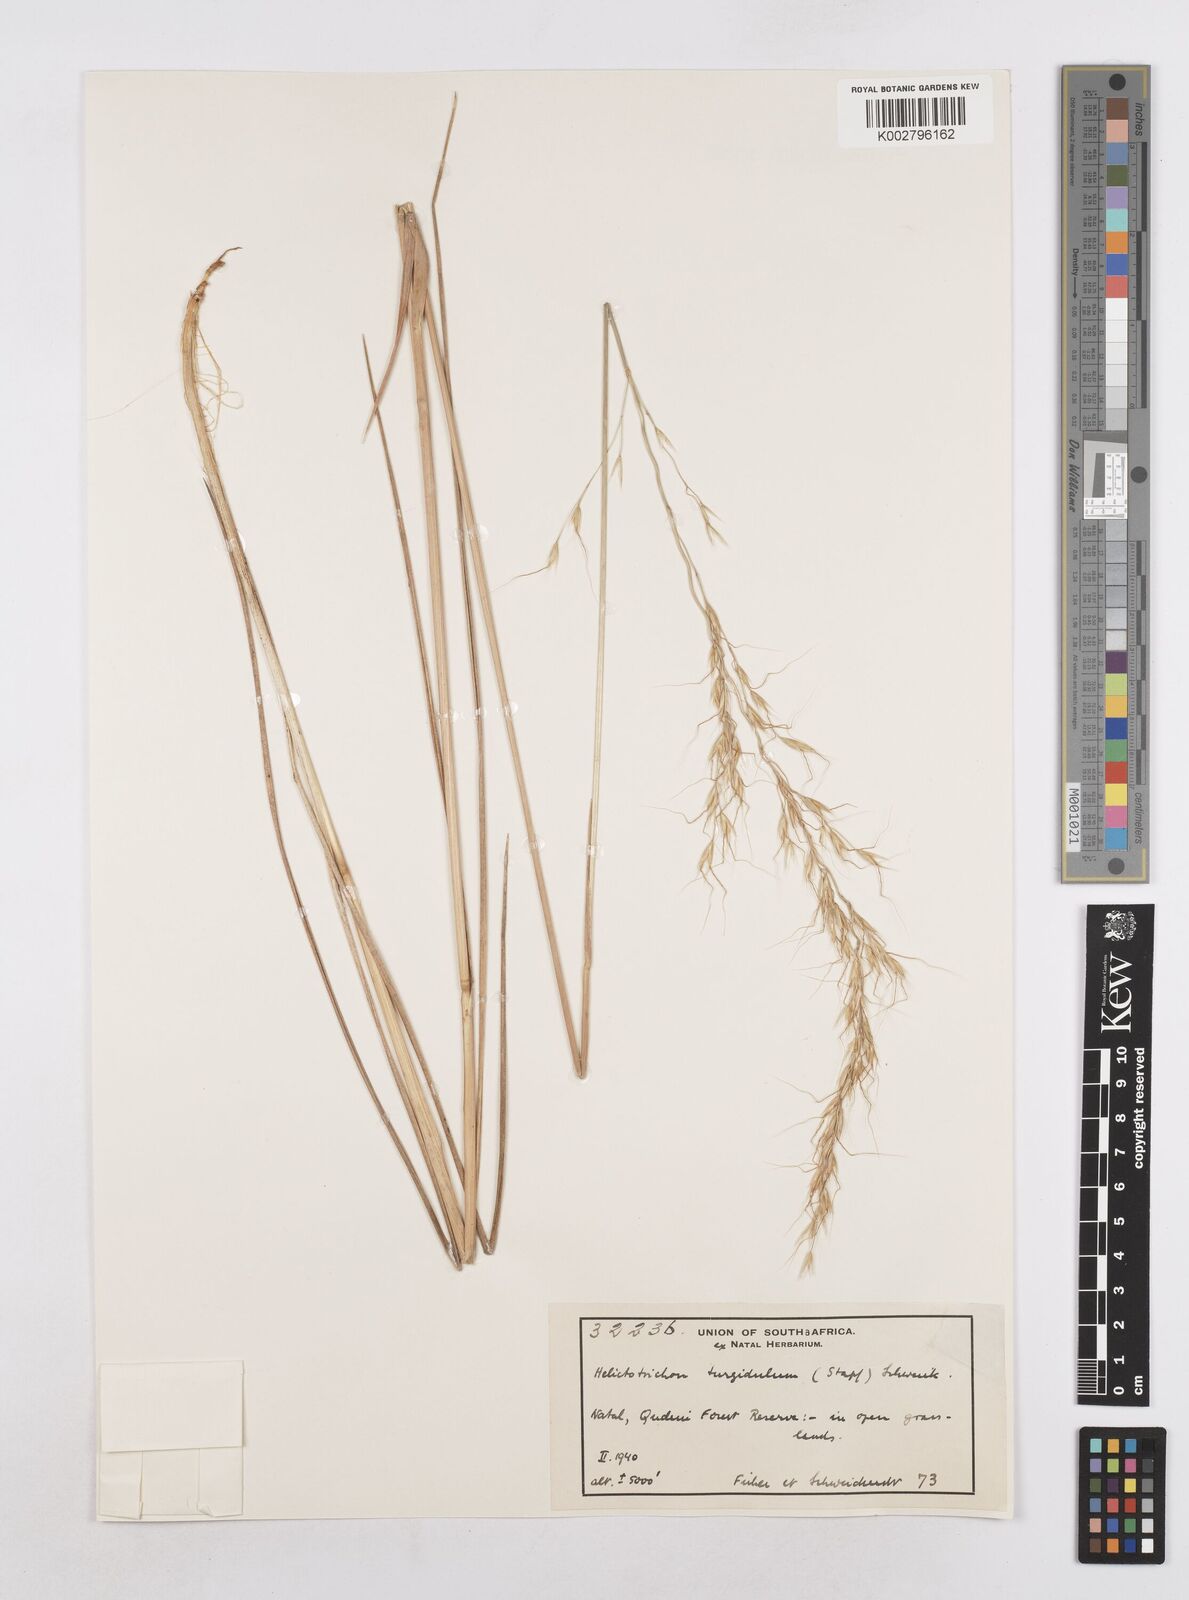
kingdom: Plantae
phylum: Tracheophyta
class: Liliopsida
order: Poales
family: Poaceae
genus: Trisetopsis
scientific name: Trisetopsis imberbis
